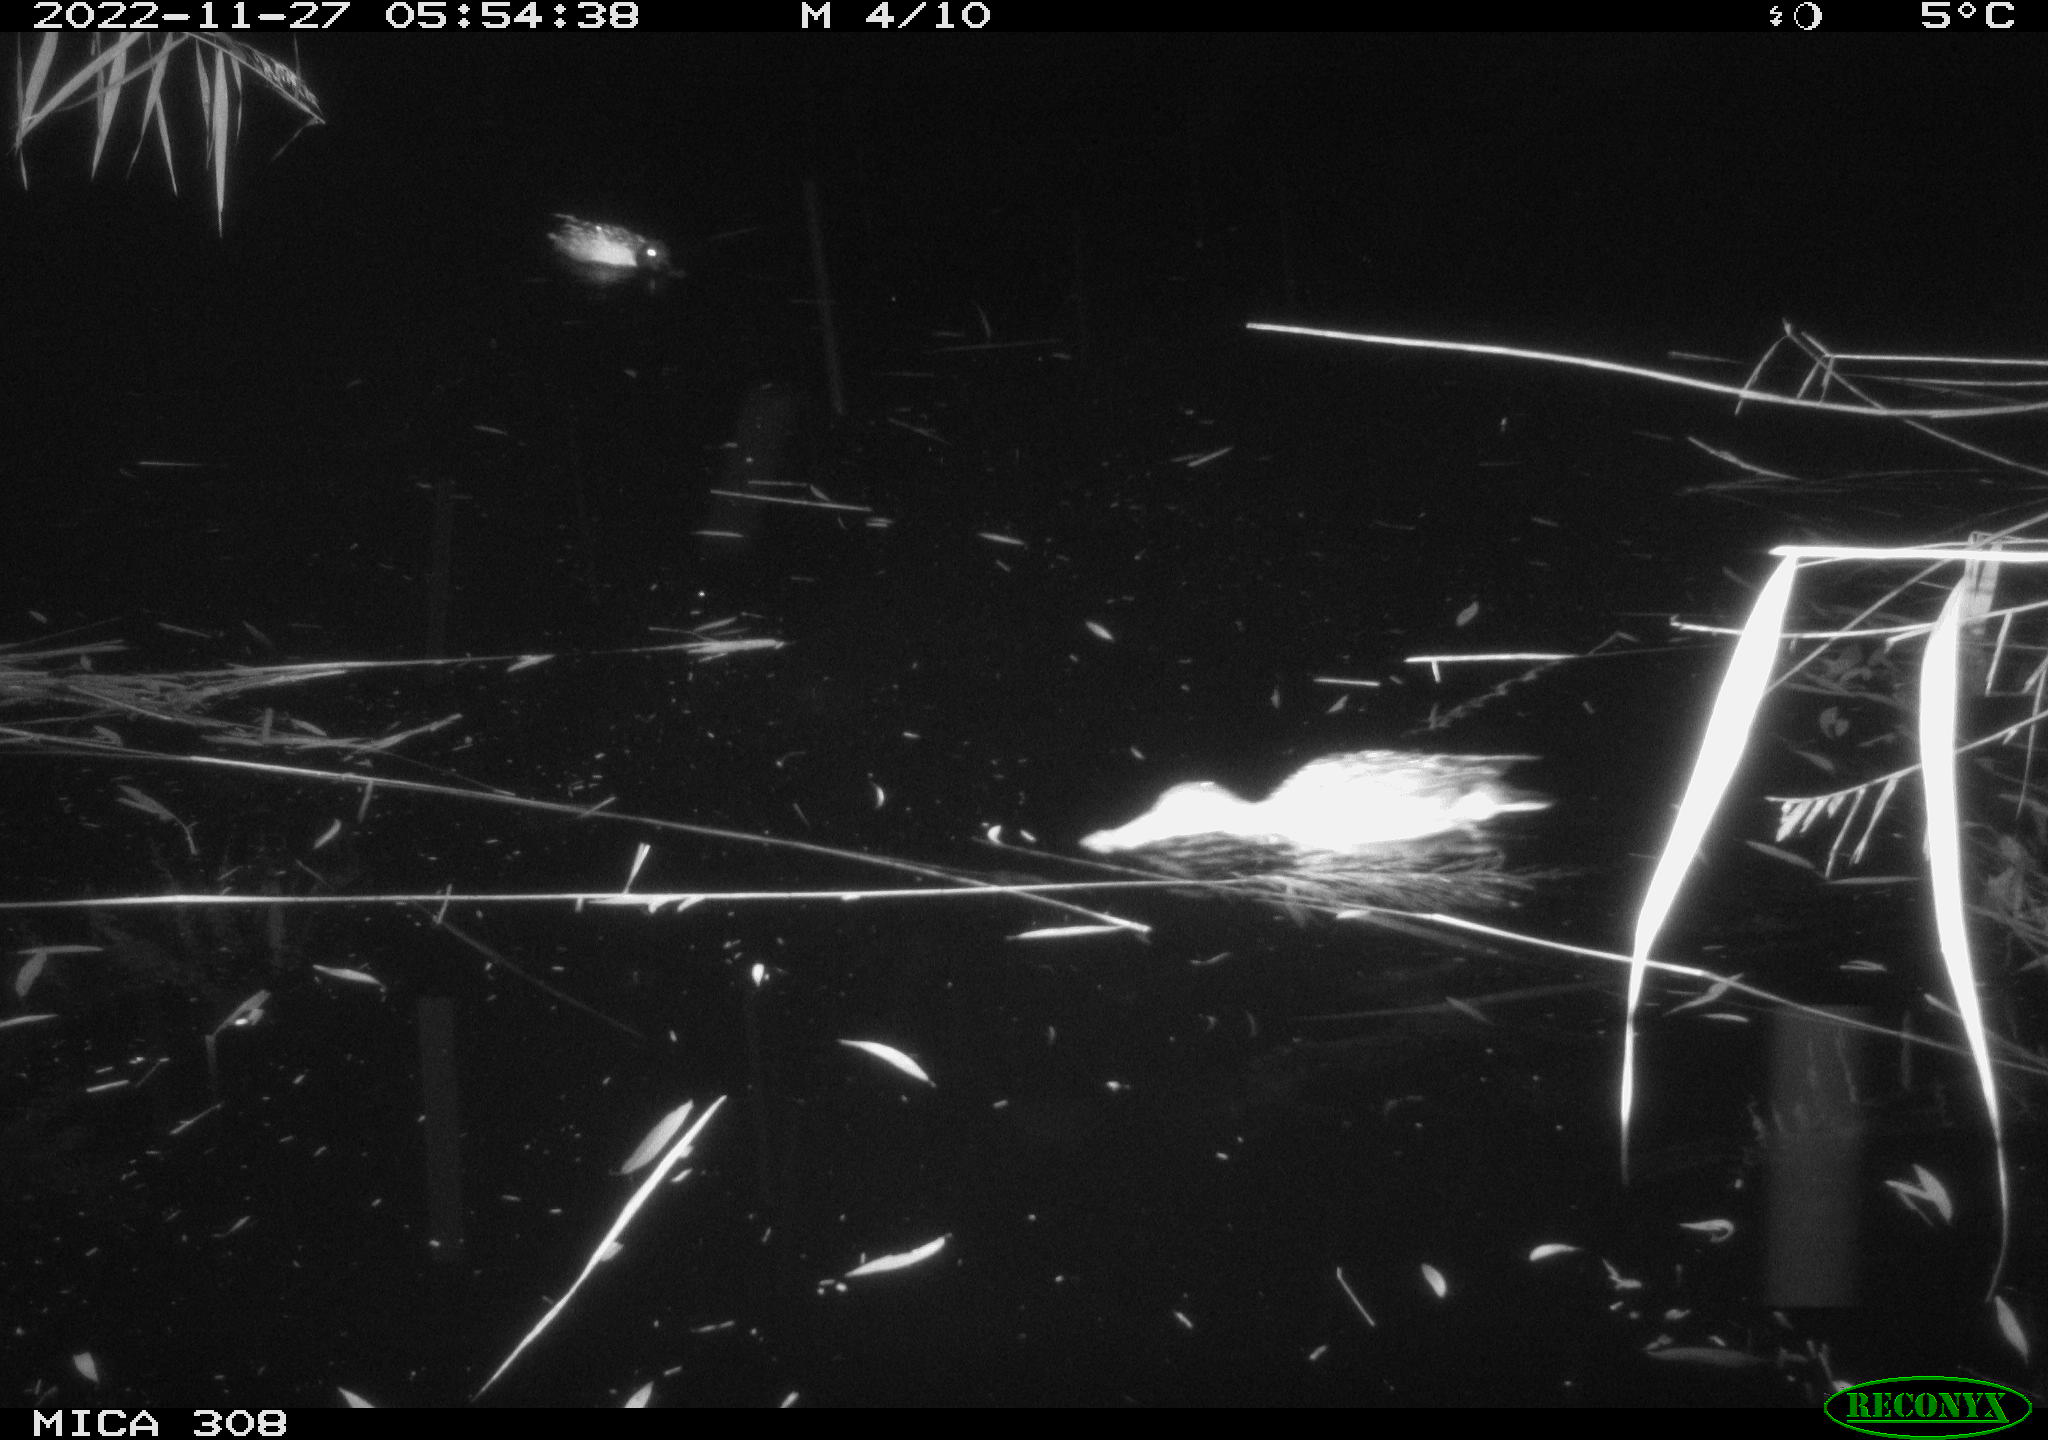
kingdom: Animalia
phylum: Chordata
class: Aves
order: Anseriformes
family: Anatidae
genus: Anas
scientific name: Anas
